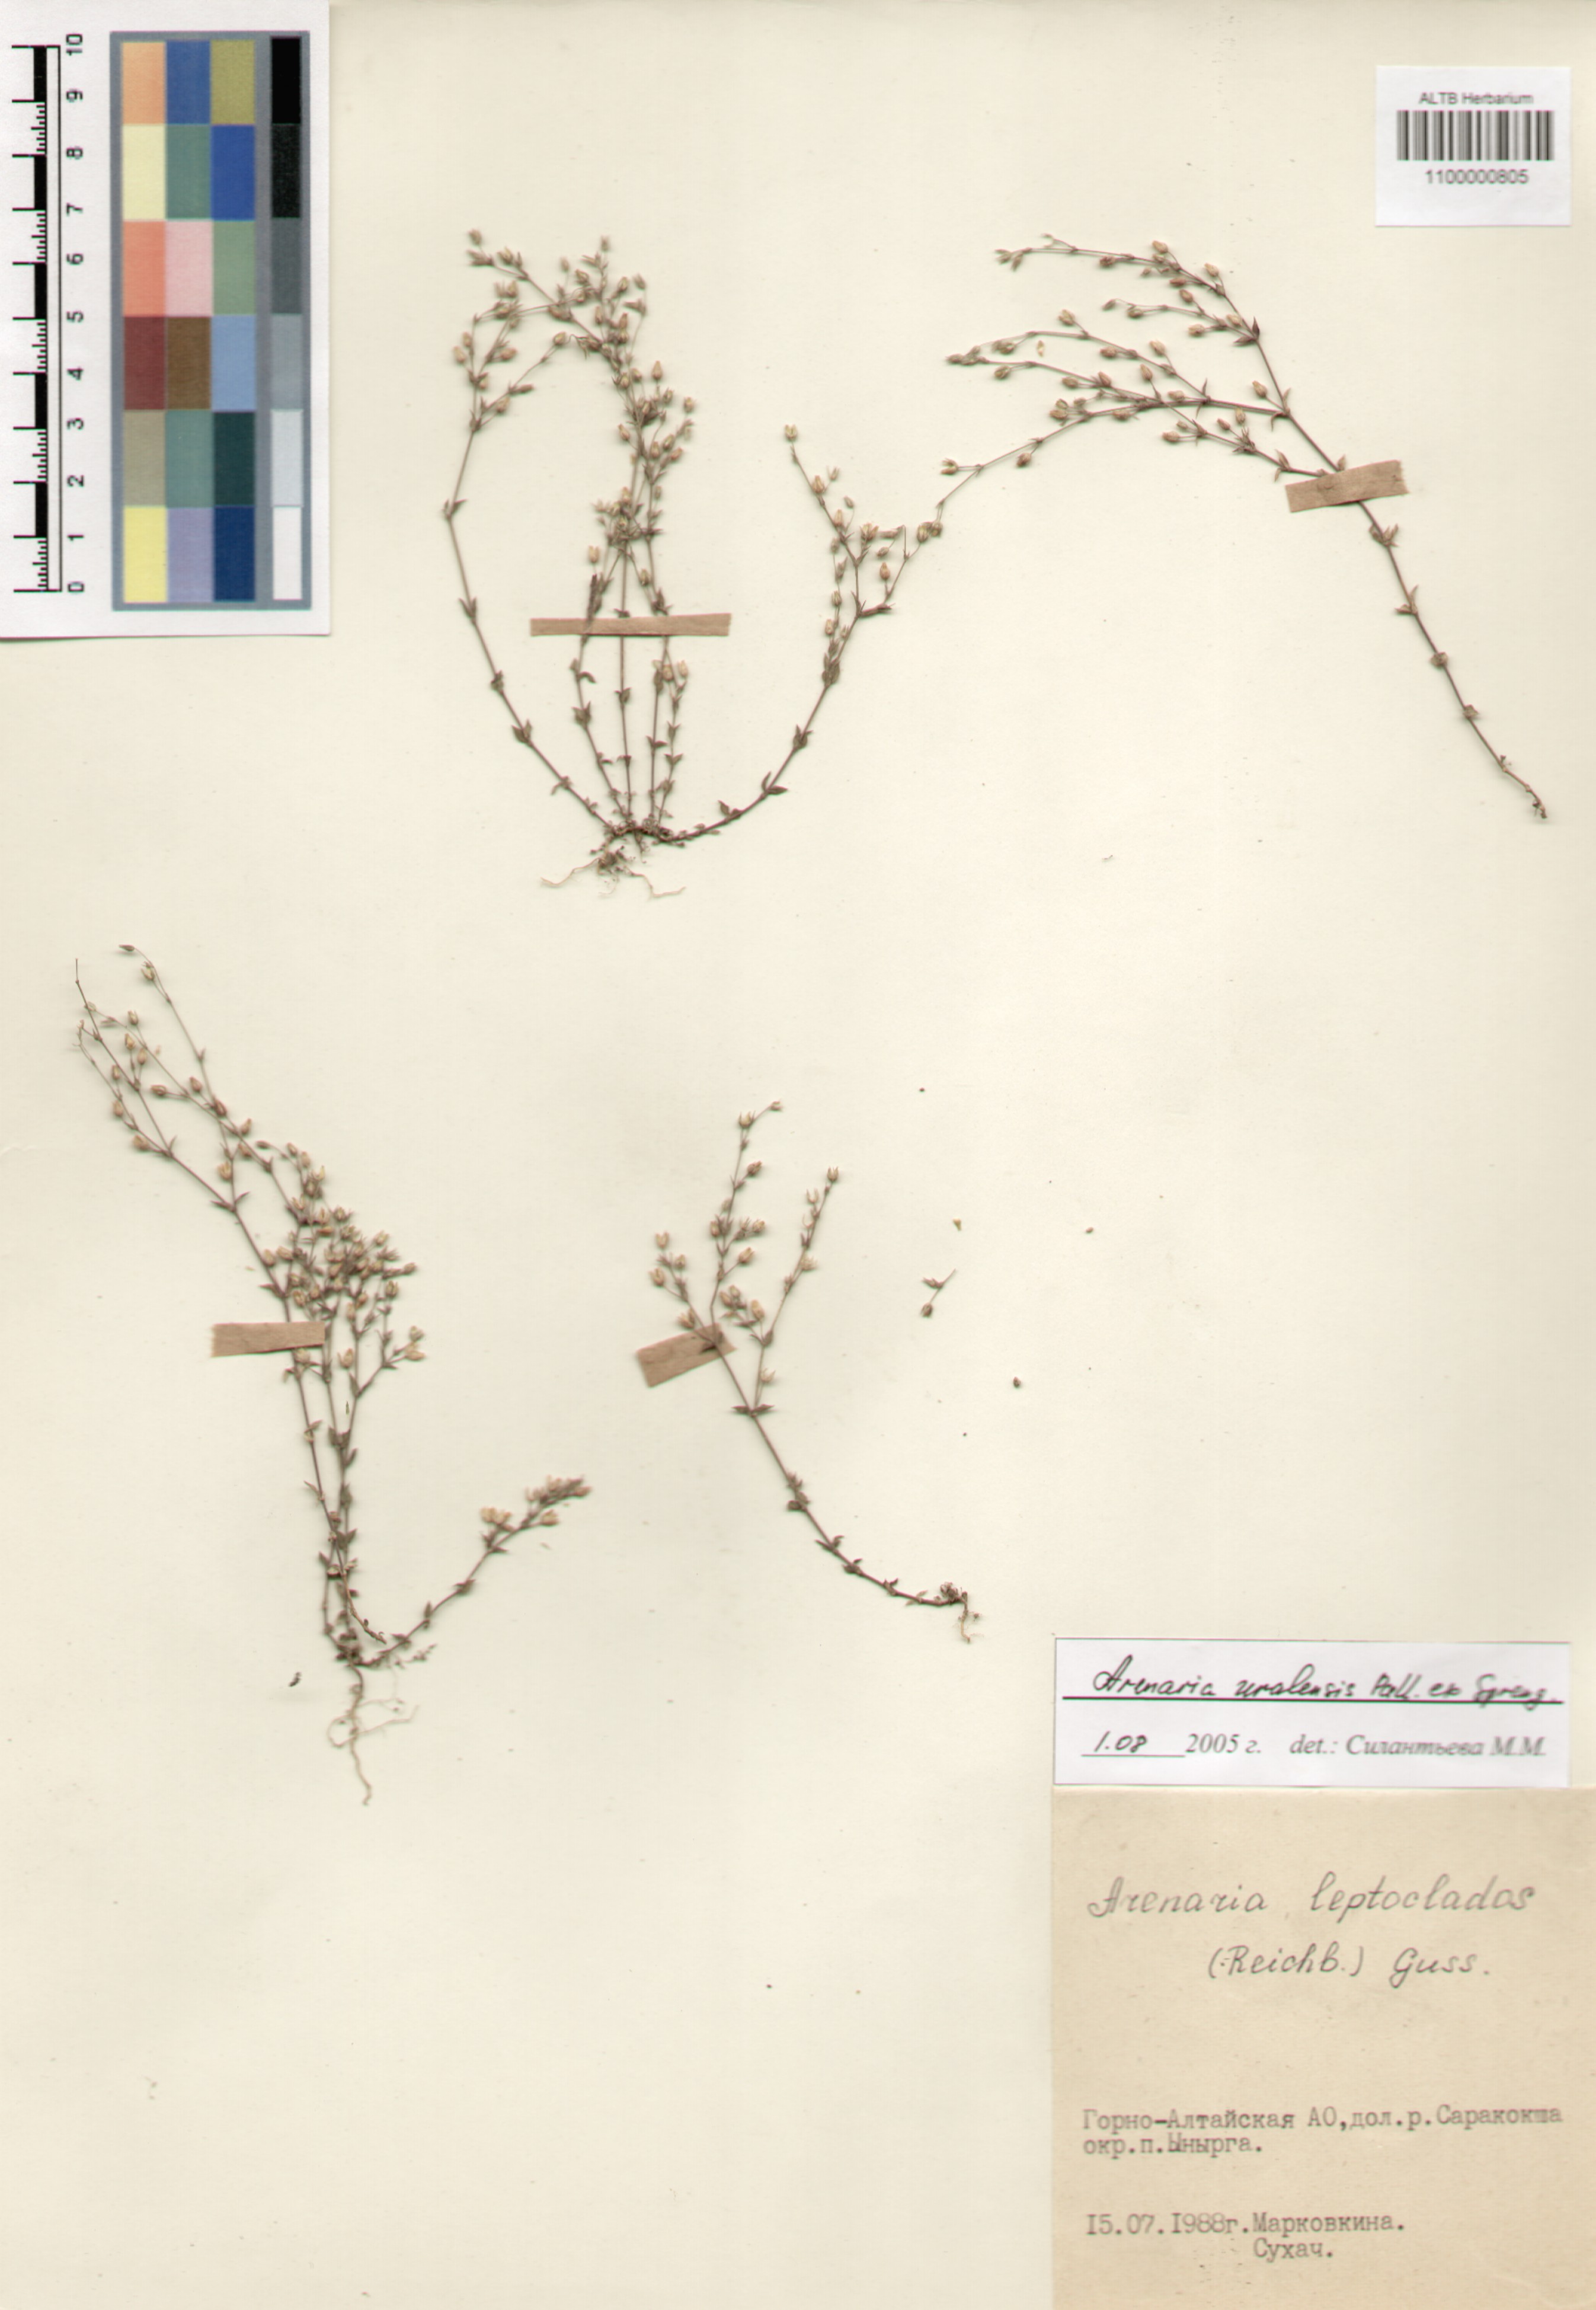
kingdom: Plantae
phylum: Tracheophyta
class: Magnoliopsida
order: Caryophyllales
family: Caryophyllaceae
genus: Arenaria
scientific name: Arenaria serpyllifolia
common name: Thyme-leaved sandwort
